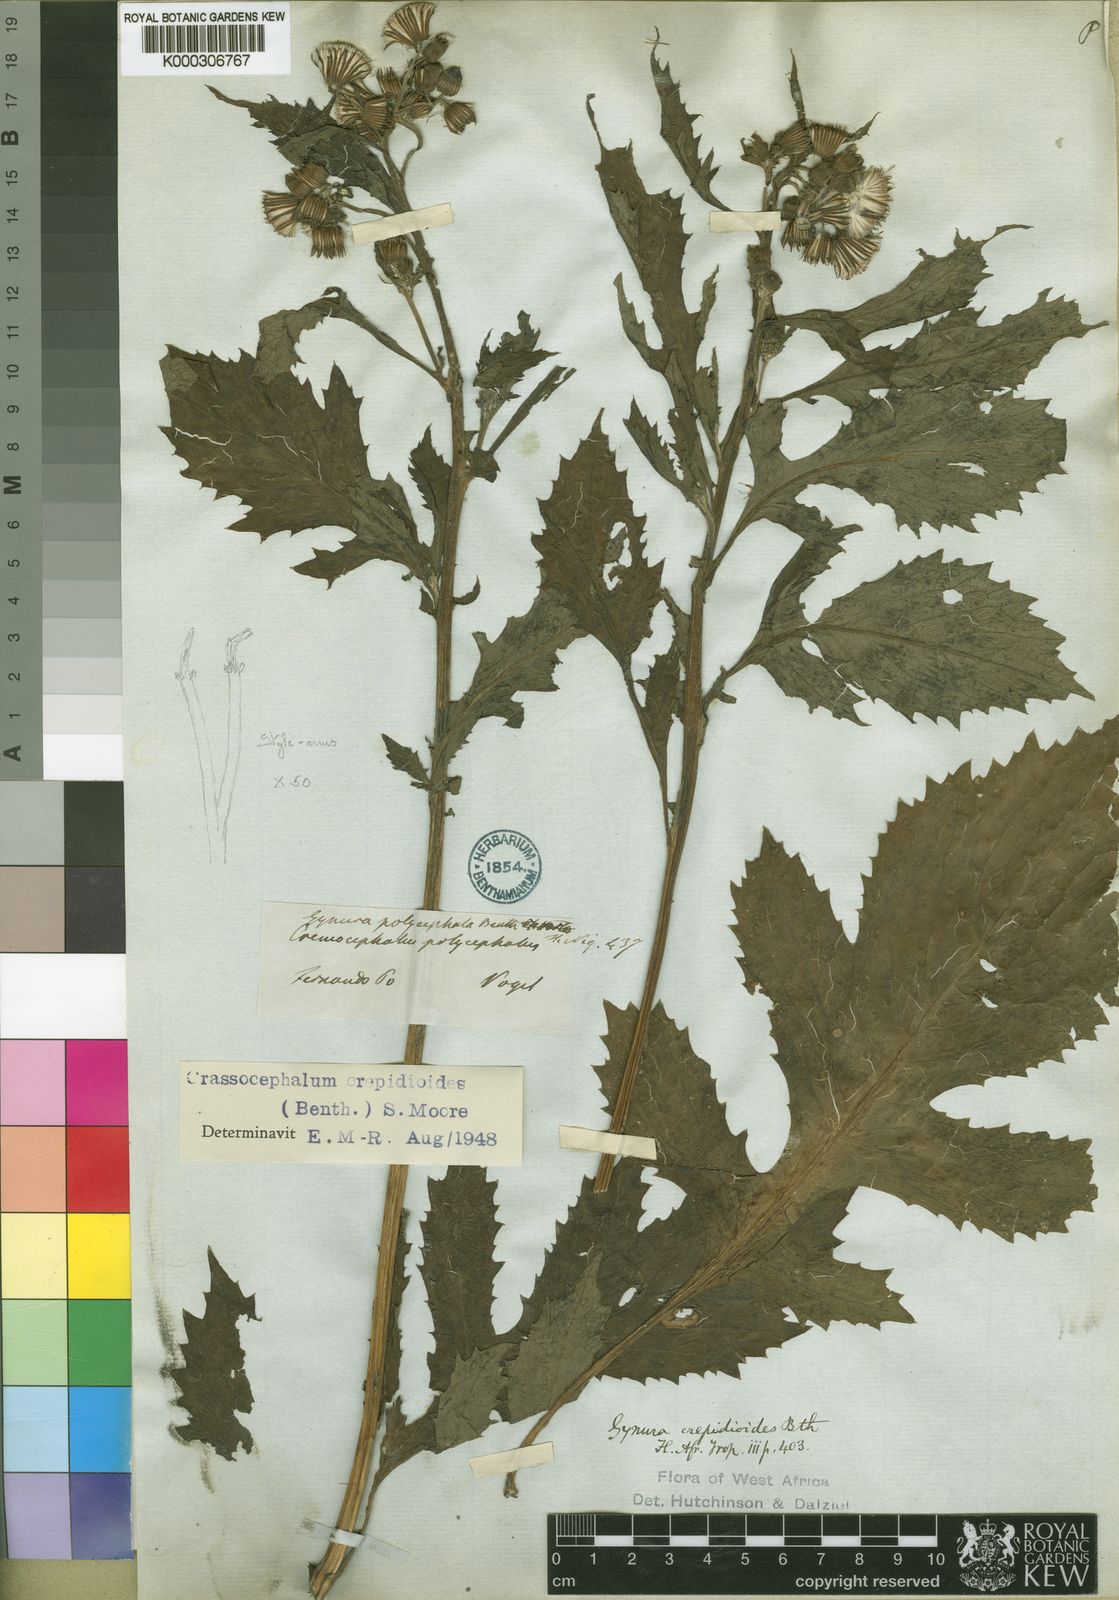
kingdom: Plantae
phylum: Tracheophyta
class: Magnoliopsida
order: Asterales
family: Asteraceae
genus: Crassocephalum
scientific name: Crassocephalum crepidioides
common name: Redflower ragleaf
